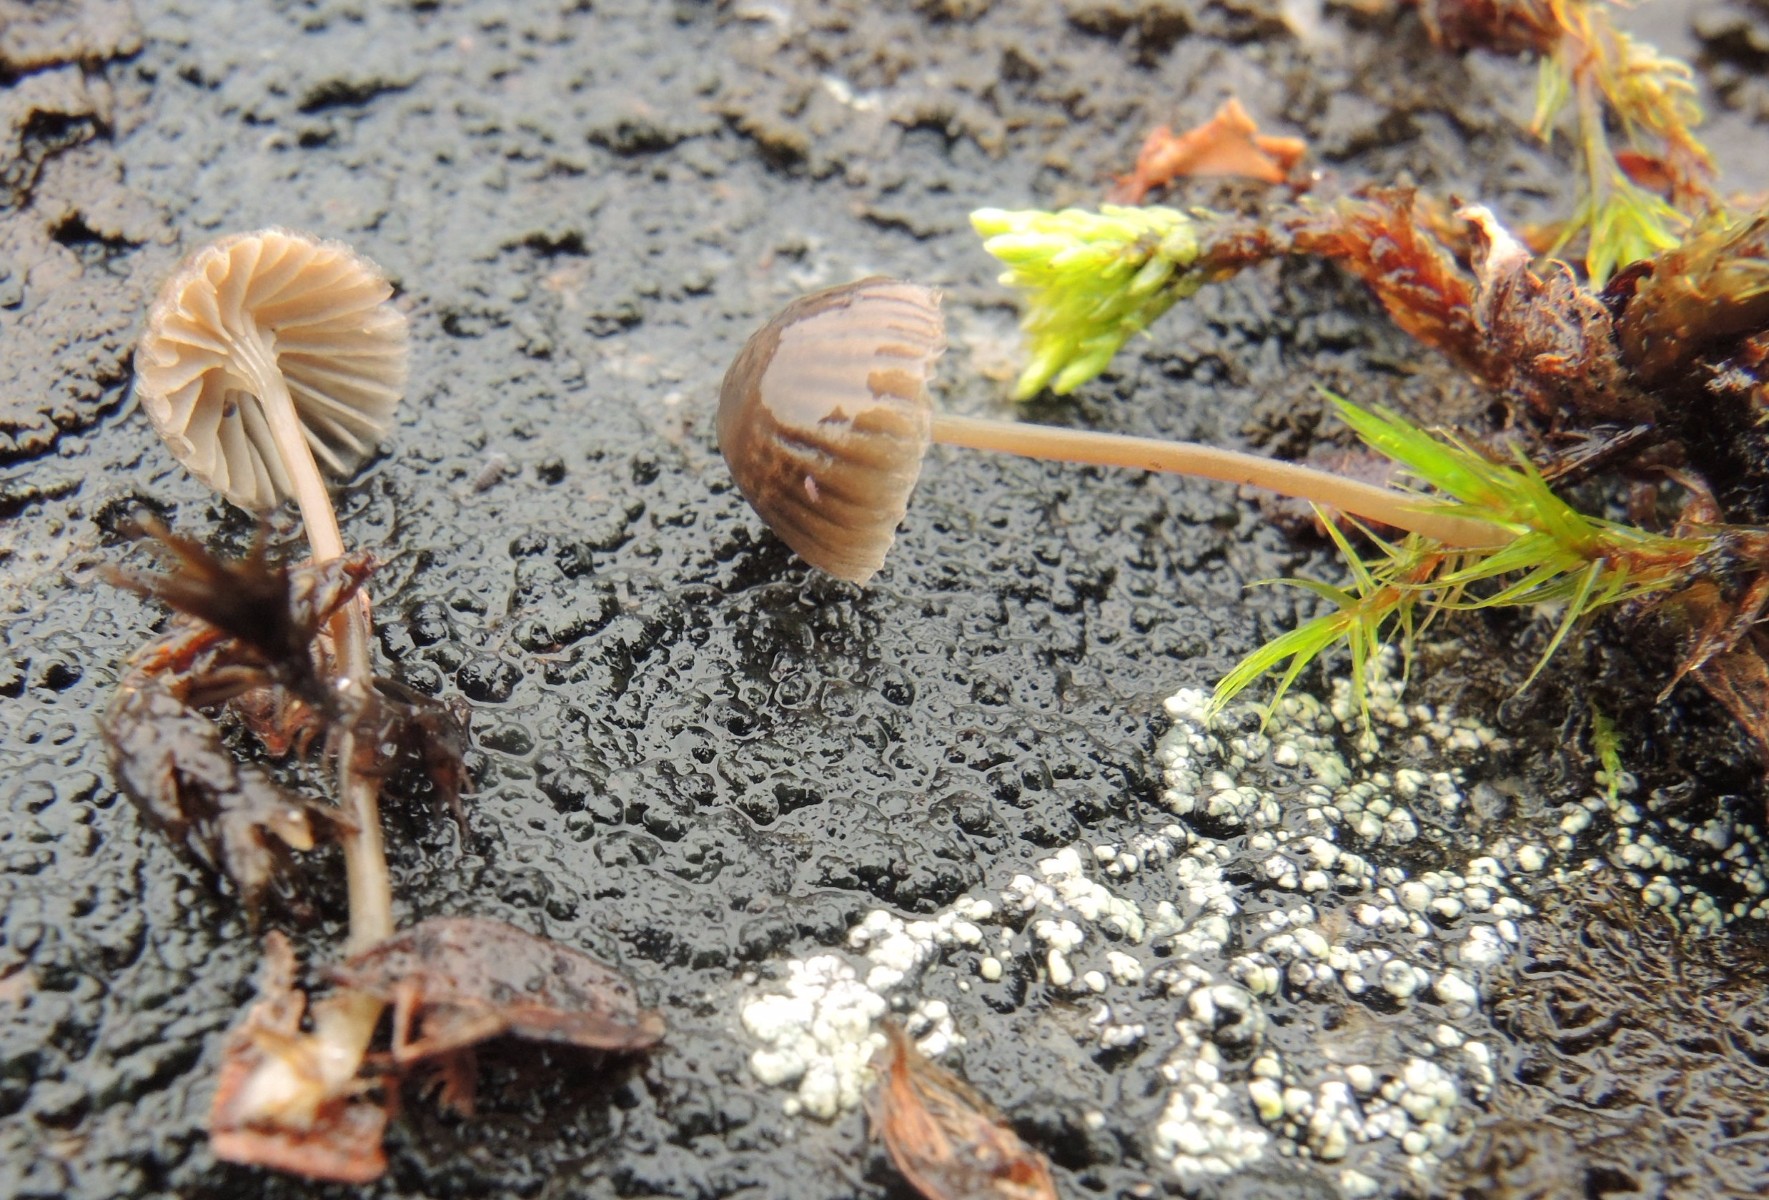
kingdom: Fungi
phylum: Basidiomycota
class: Agaricomycetes
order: Agaricales
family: Mycenaceae
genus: Mycena
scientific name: Mycena
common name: huesvamp
